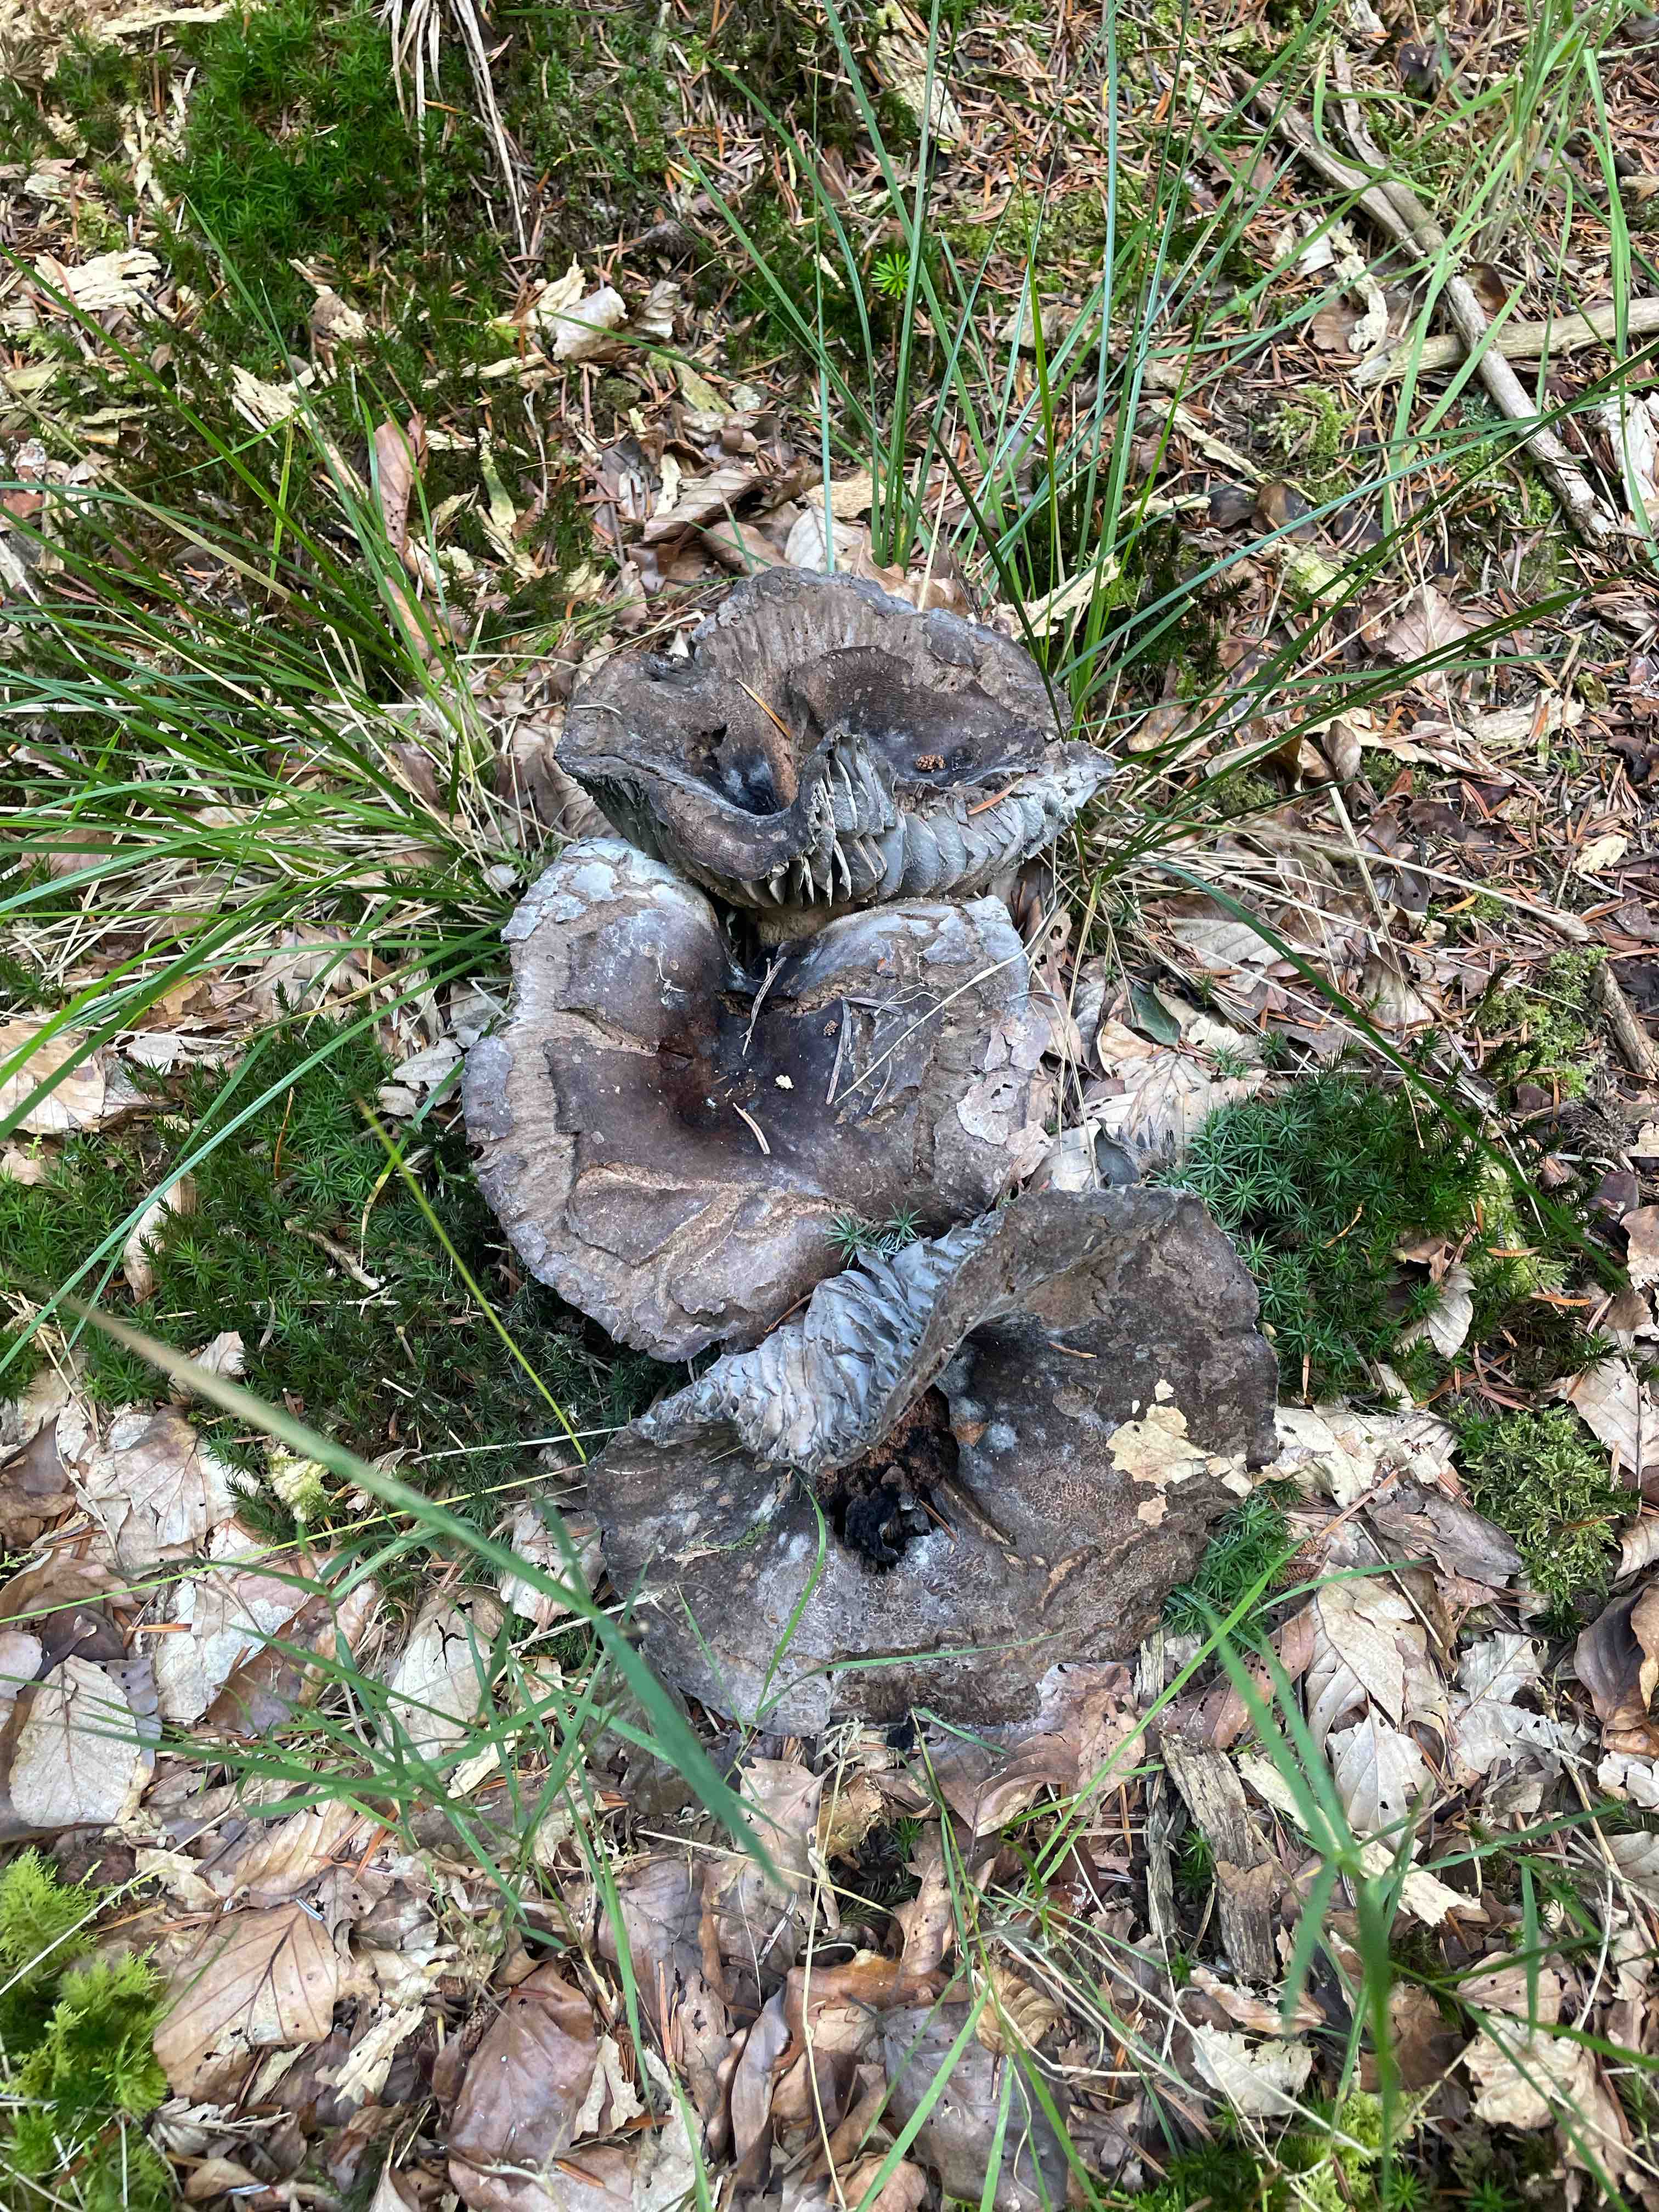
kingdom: Fungi
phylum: Basidiomycota
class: Agaricomycetes
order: Russulales
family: Russulaceae
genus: Russula
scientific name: Russula adusta
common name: sværtende skørhat
